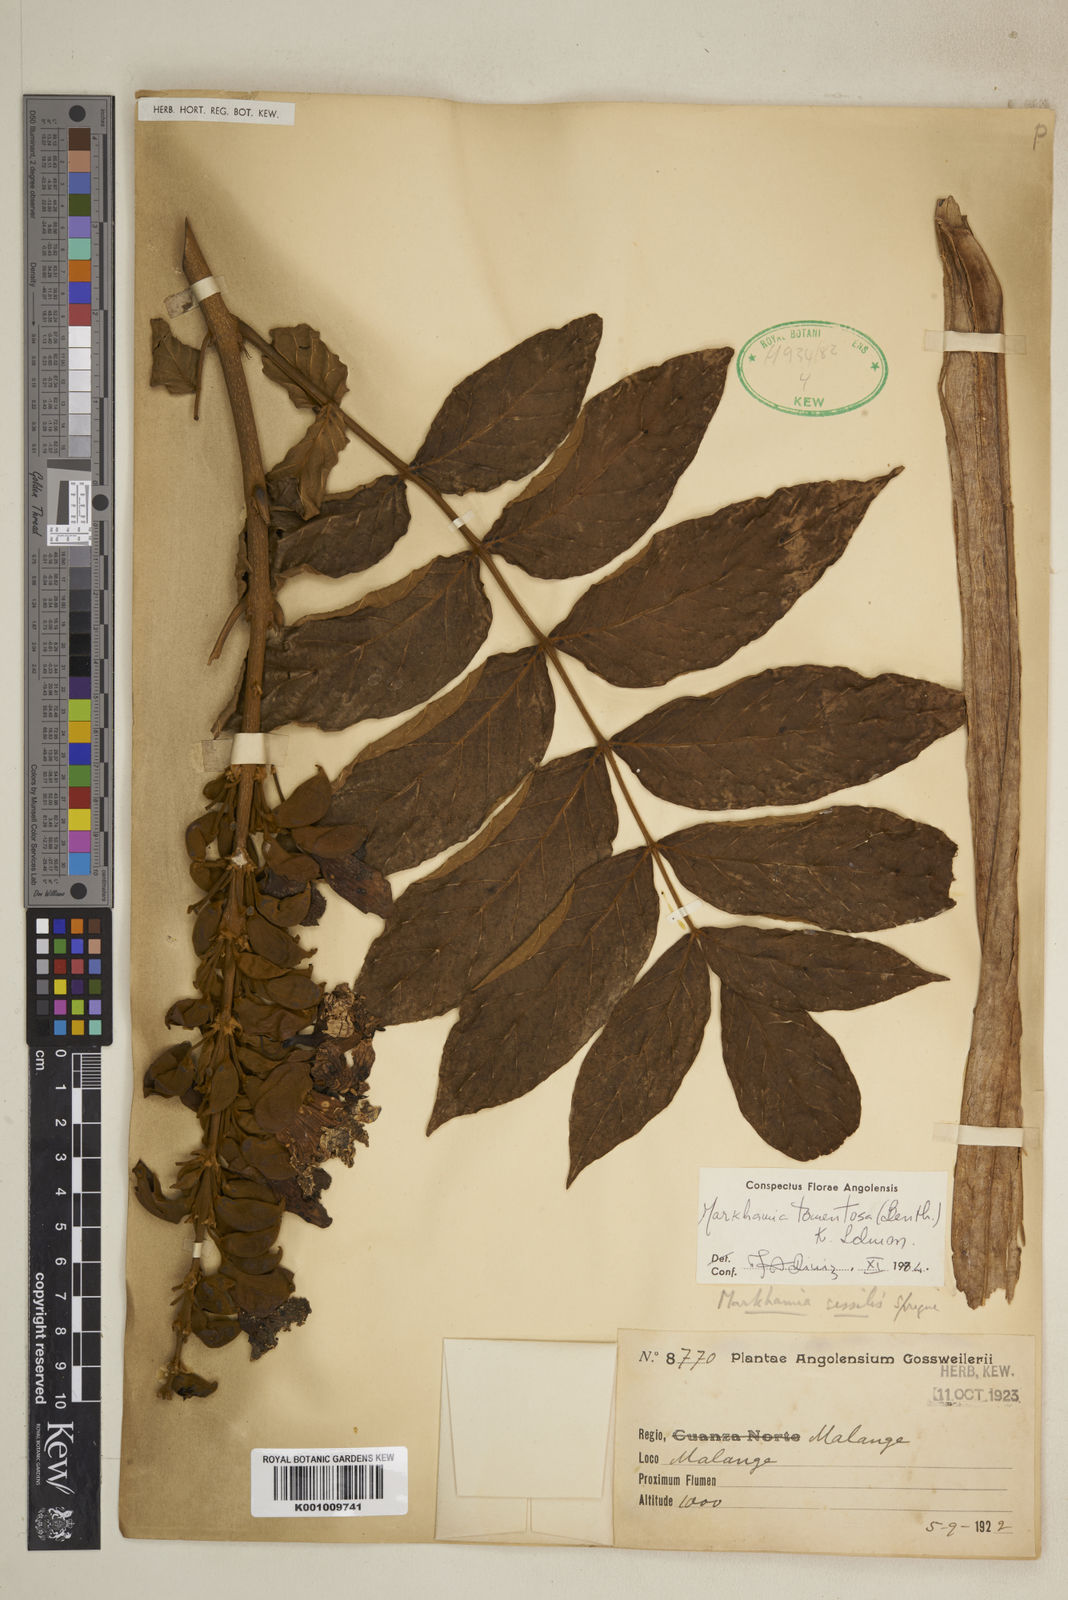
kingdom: Plantae
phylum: Tracheophyta
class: Magnoliopsida
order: Lamiales
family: Bignoniaceae
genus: Markhamia
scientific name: Markhamia tomentosa
